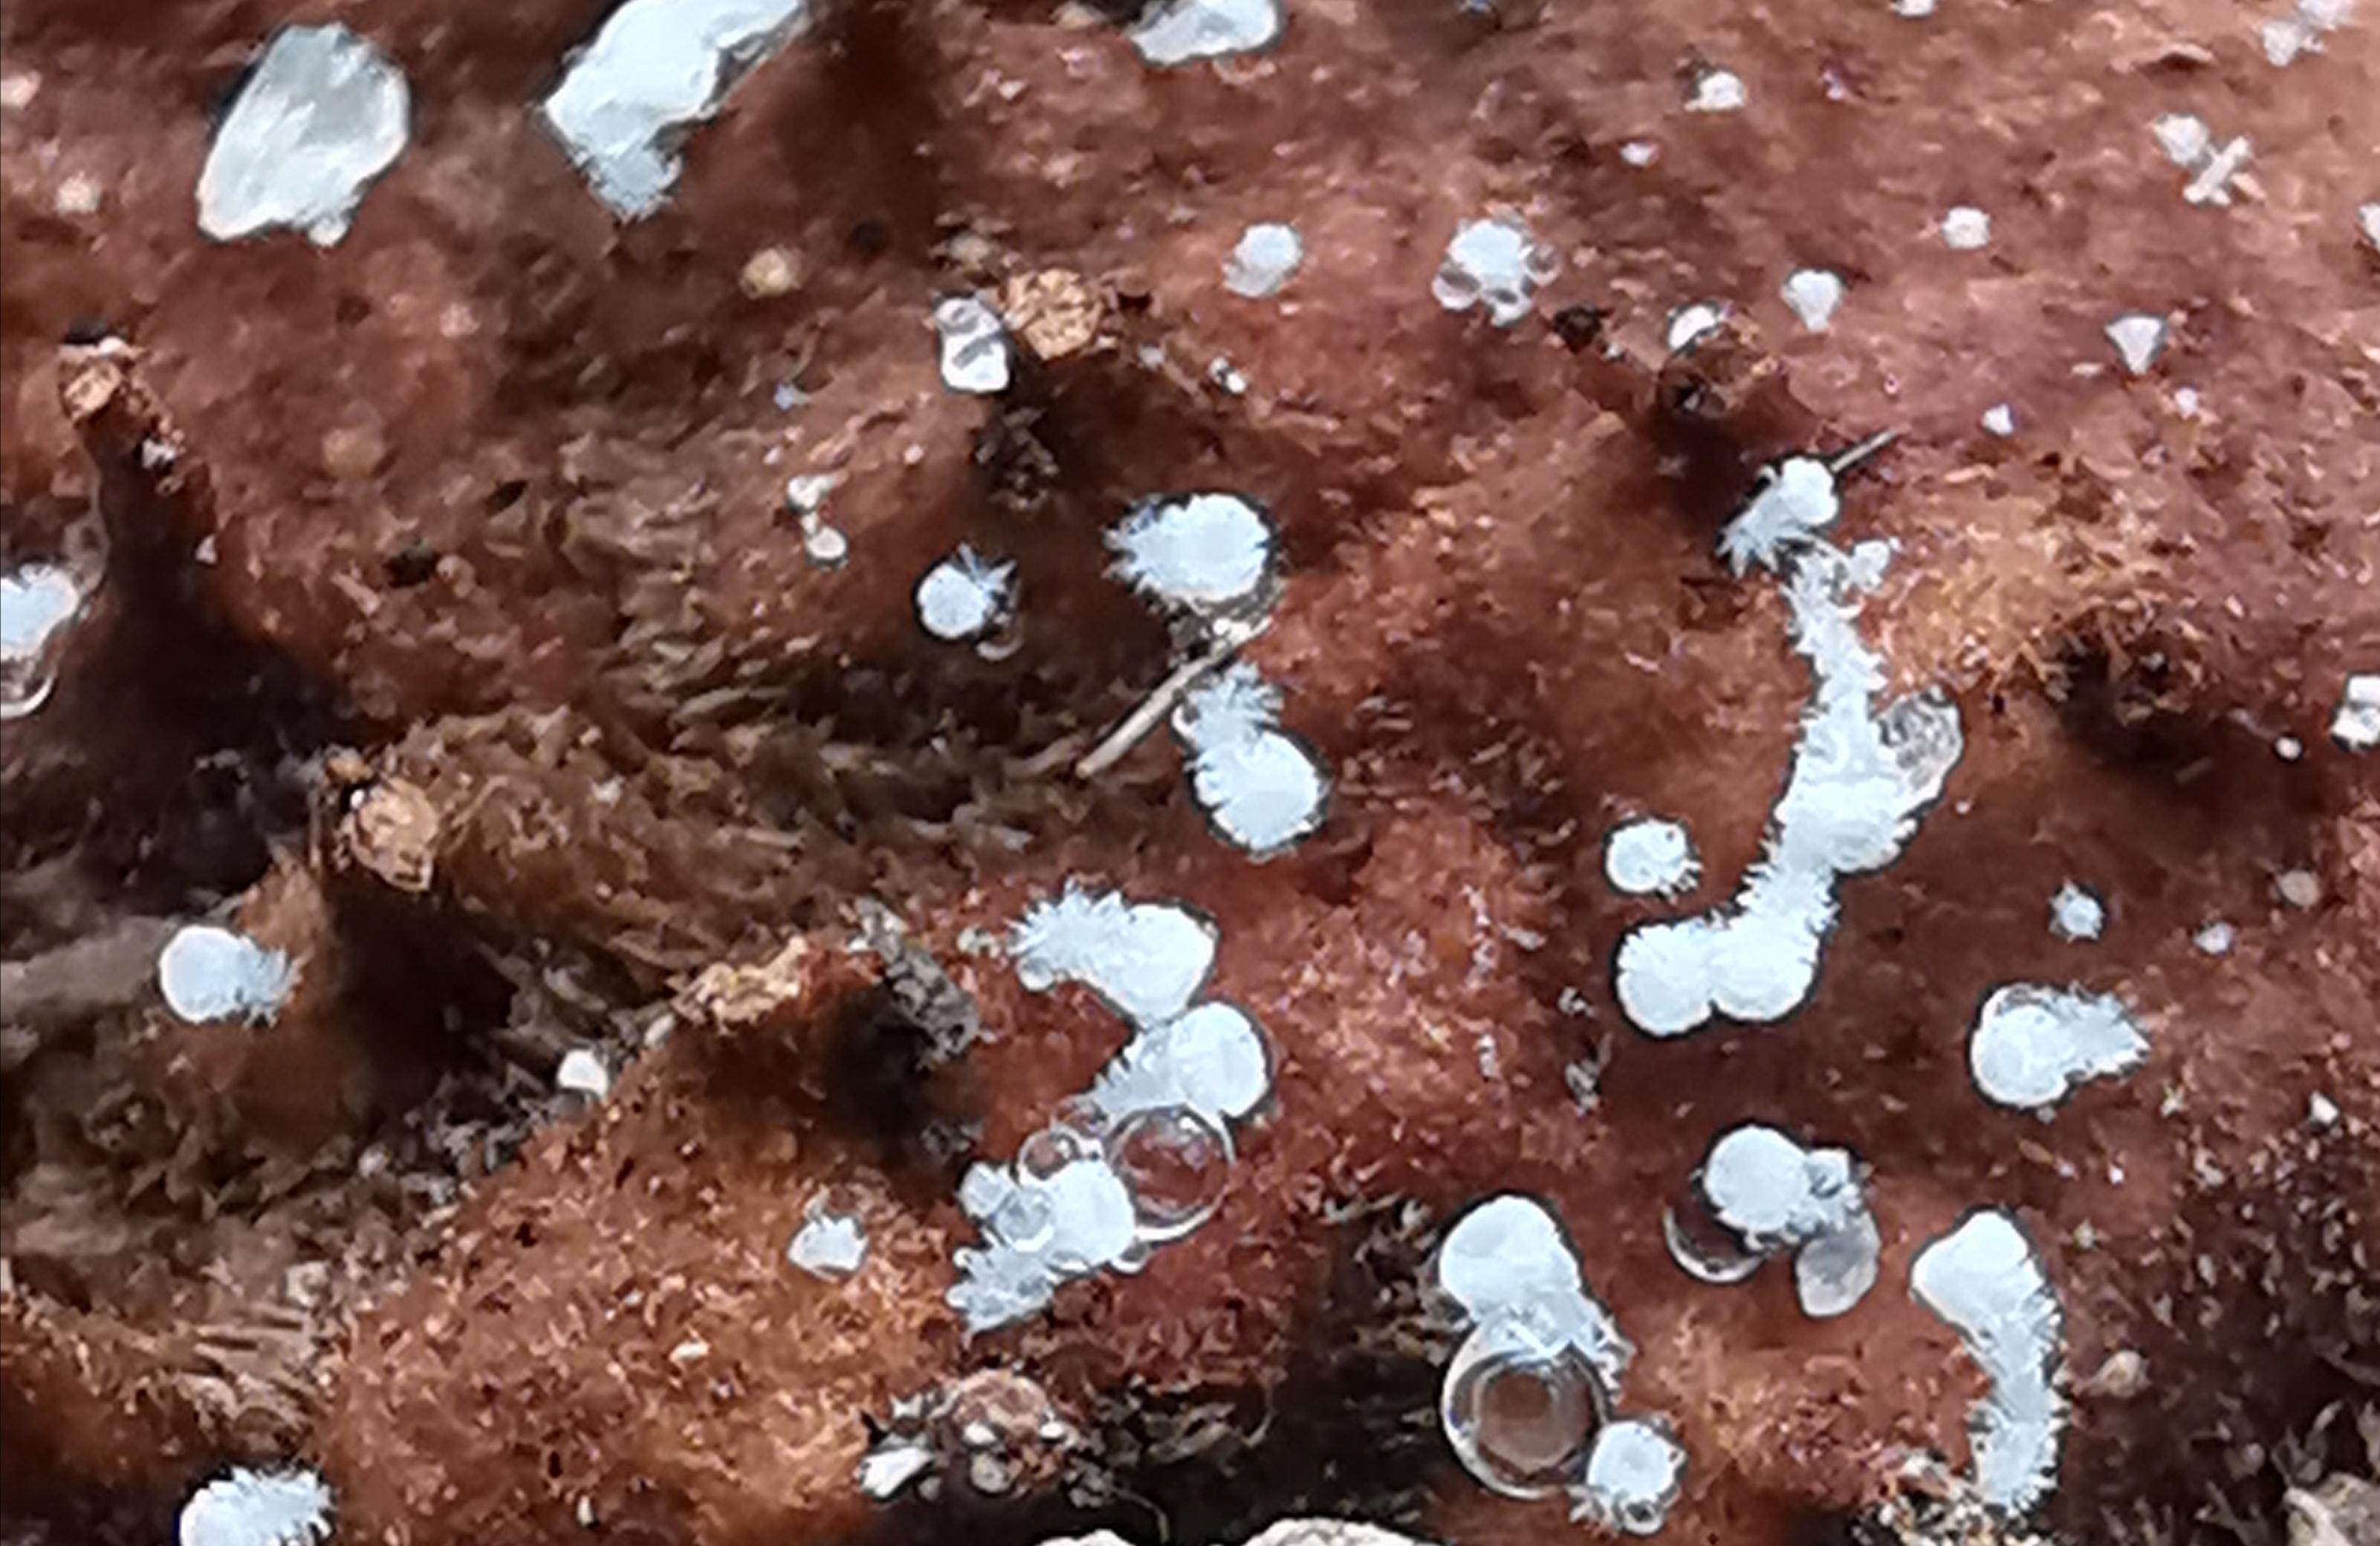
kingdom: Fungi
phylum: Ascomycota
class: Leotiomycetes
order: Helotiales
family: Lachnaceae
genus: Lachnum
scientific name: Lachnum virgineum
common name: jomfru-frynseskive
